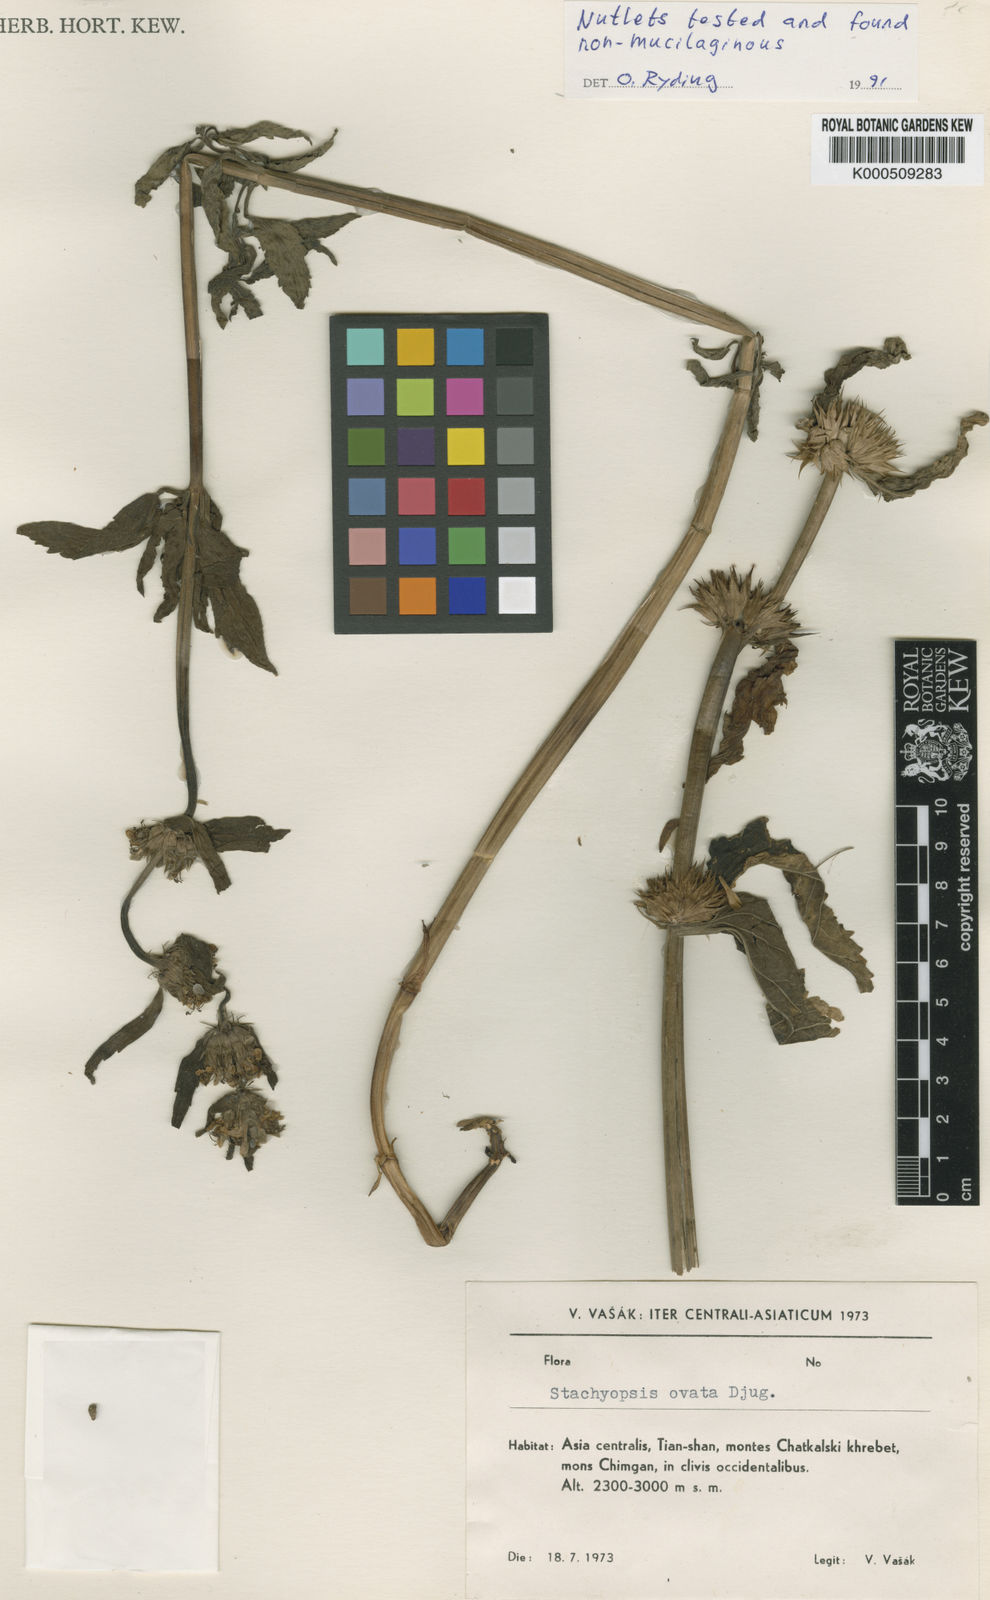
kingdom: Plantae
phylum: Tracheophyta
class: Magnoliopsida
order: Lamiales
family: Lamiaceae
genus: Eriophyton
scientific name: Eriophyton oblongatum
